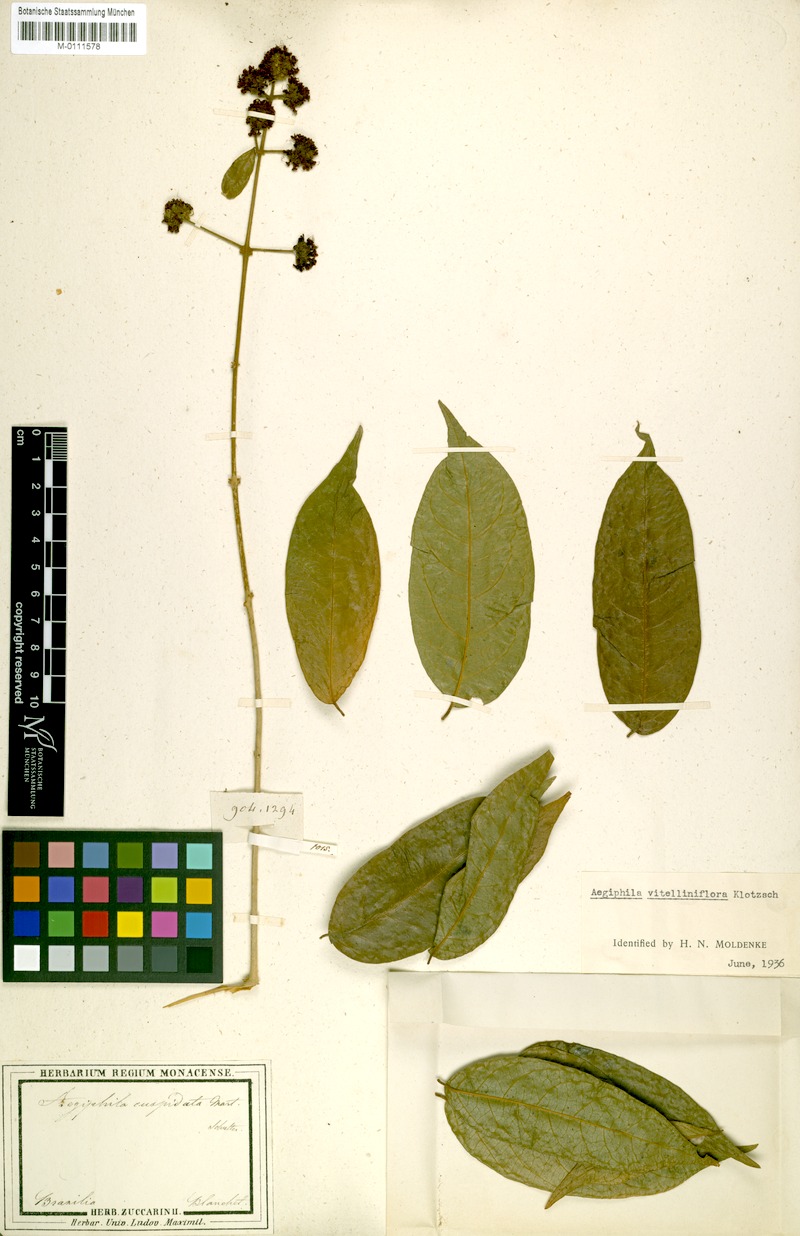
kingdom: Plantae
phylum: Tracheophyta
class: Magnoliopsida
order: Lamiales
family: Lamiaceae
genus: Aegiphila
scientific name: Aegiphila vitelliniflora
